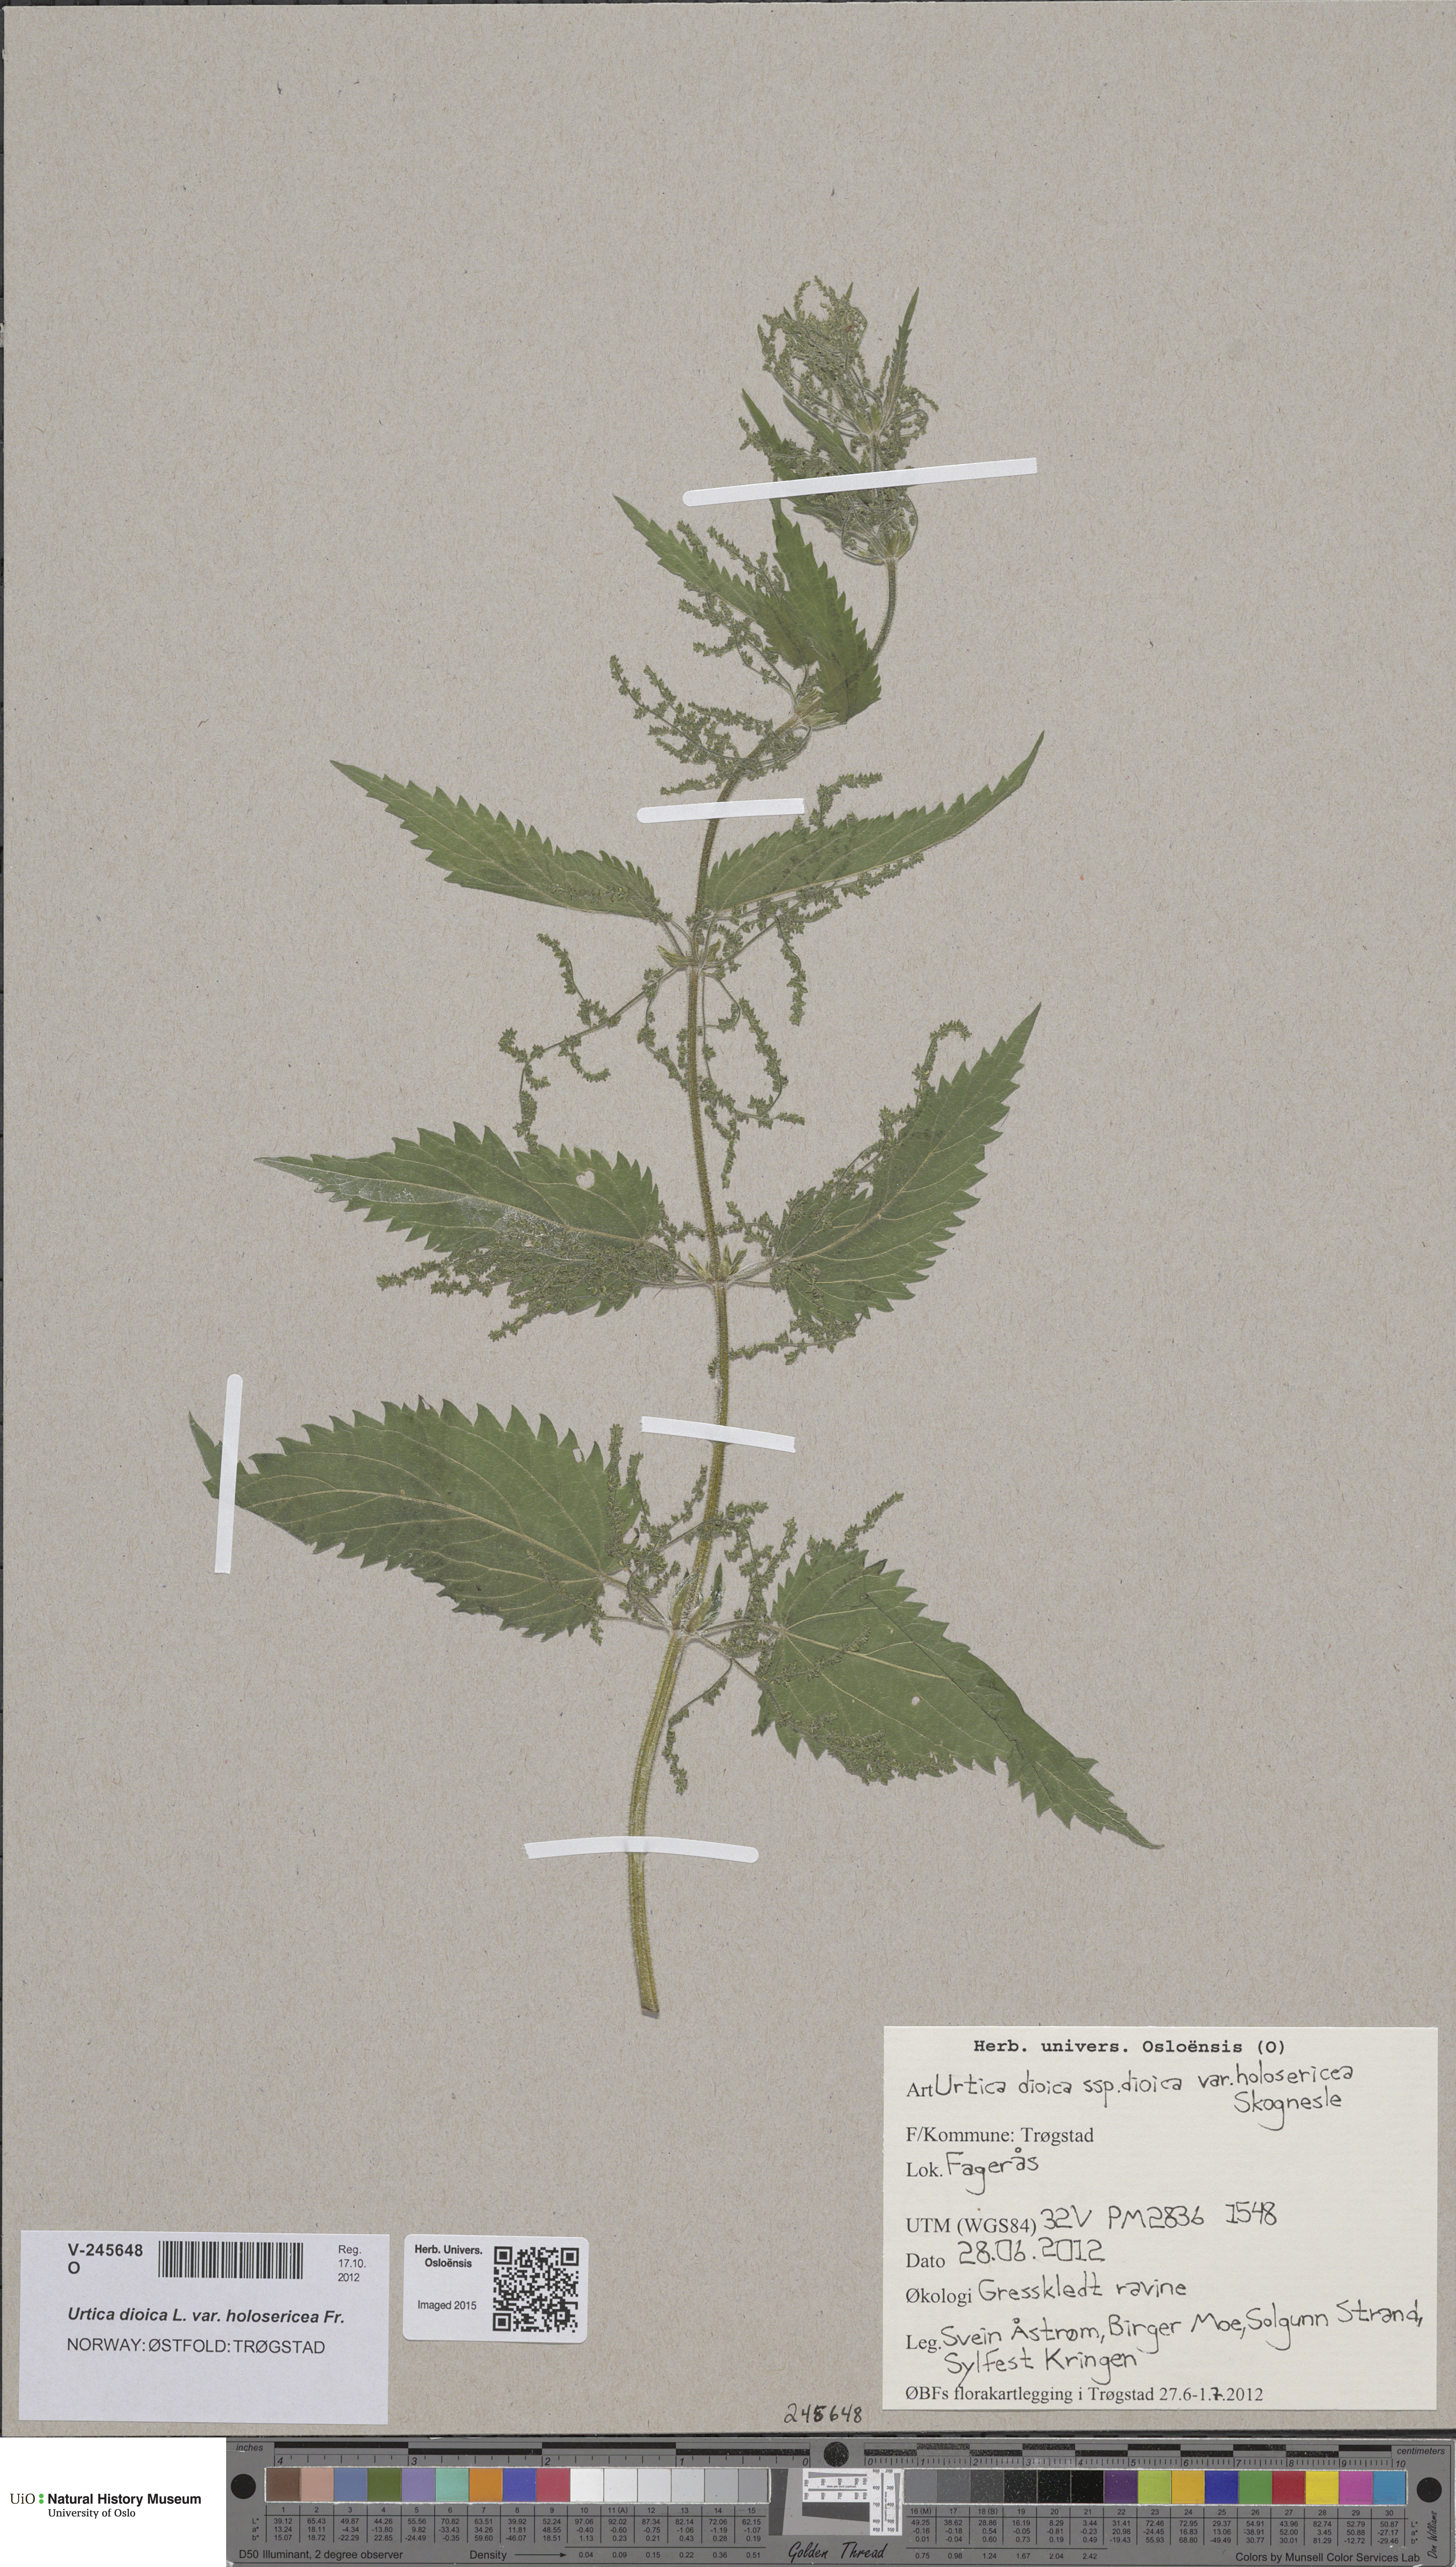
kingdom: Plantae
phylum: Tracheophyta
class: Magnoliopsida
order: Rosales
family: Urticaceae
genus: Urtica
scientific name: Urtica dioica
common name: Common nettle
